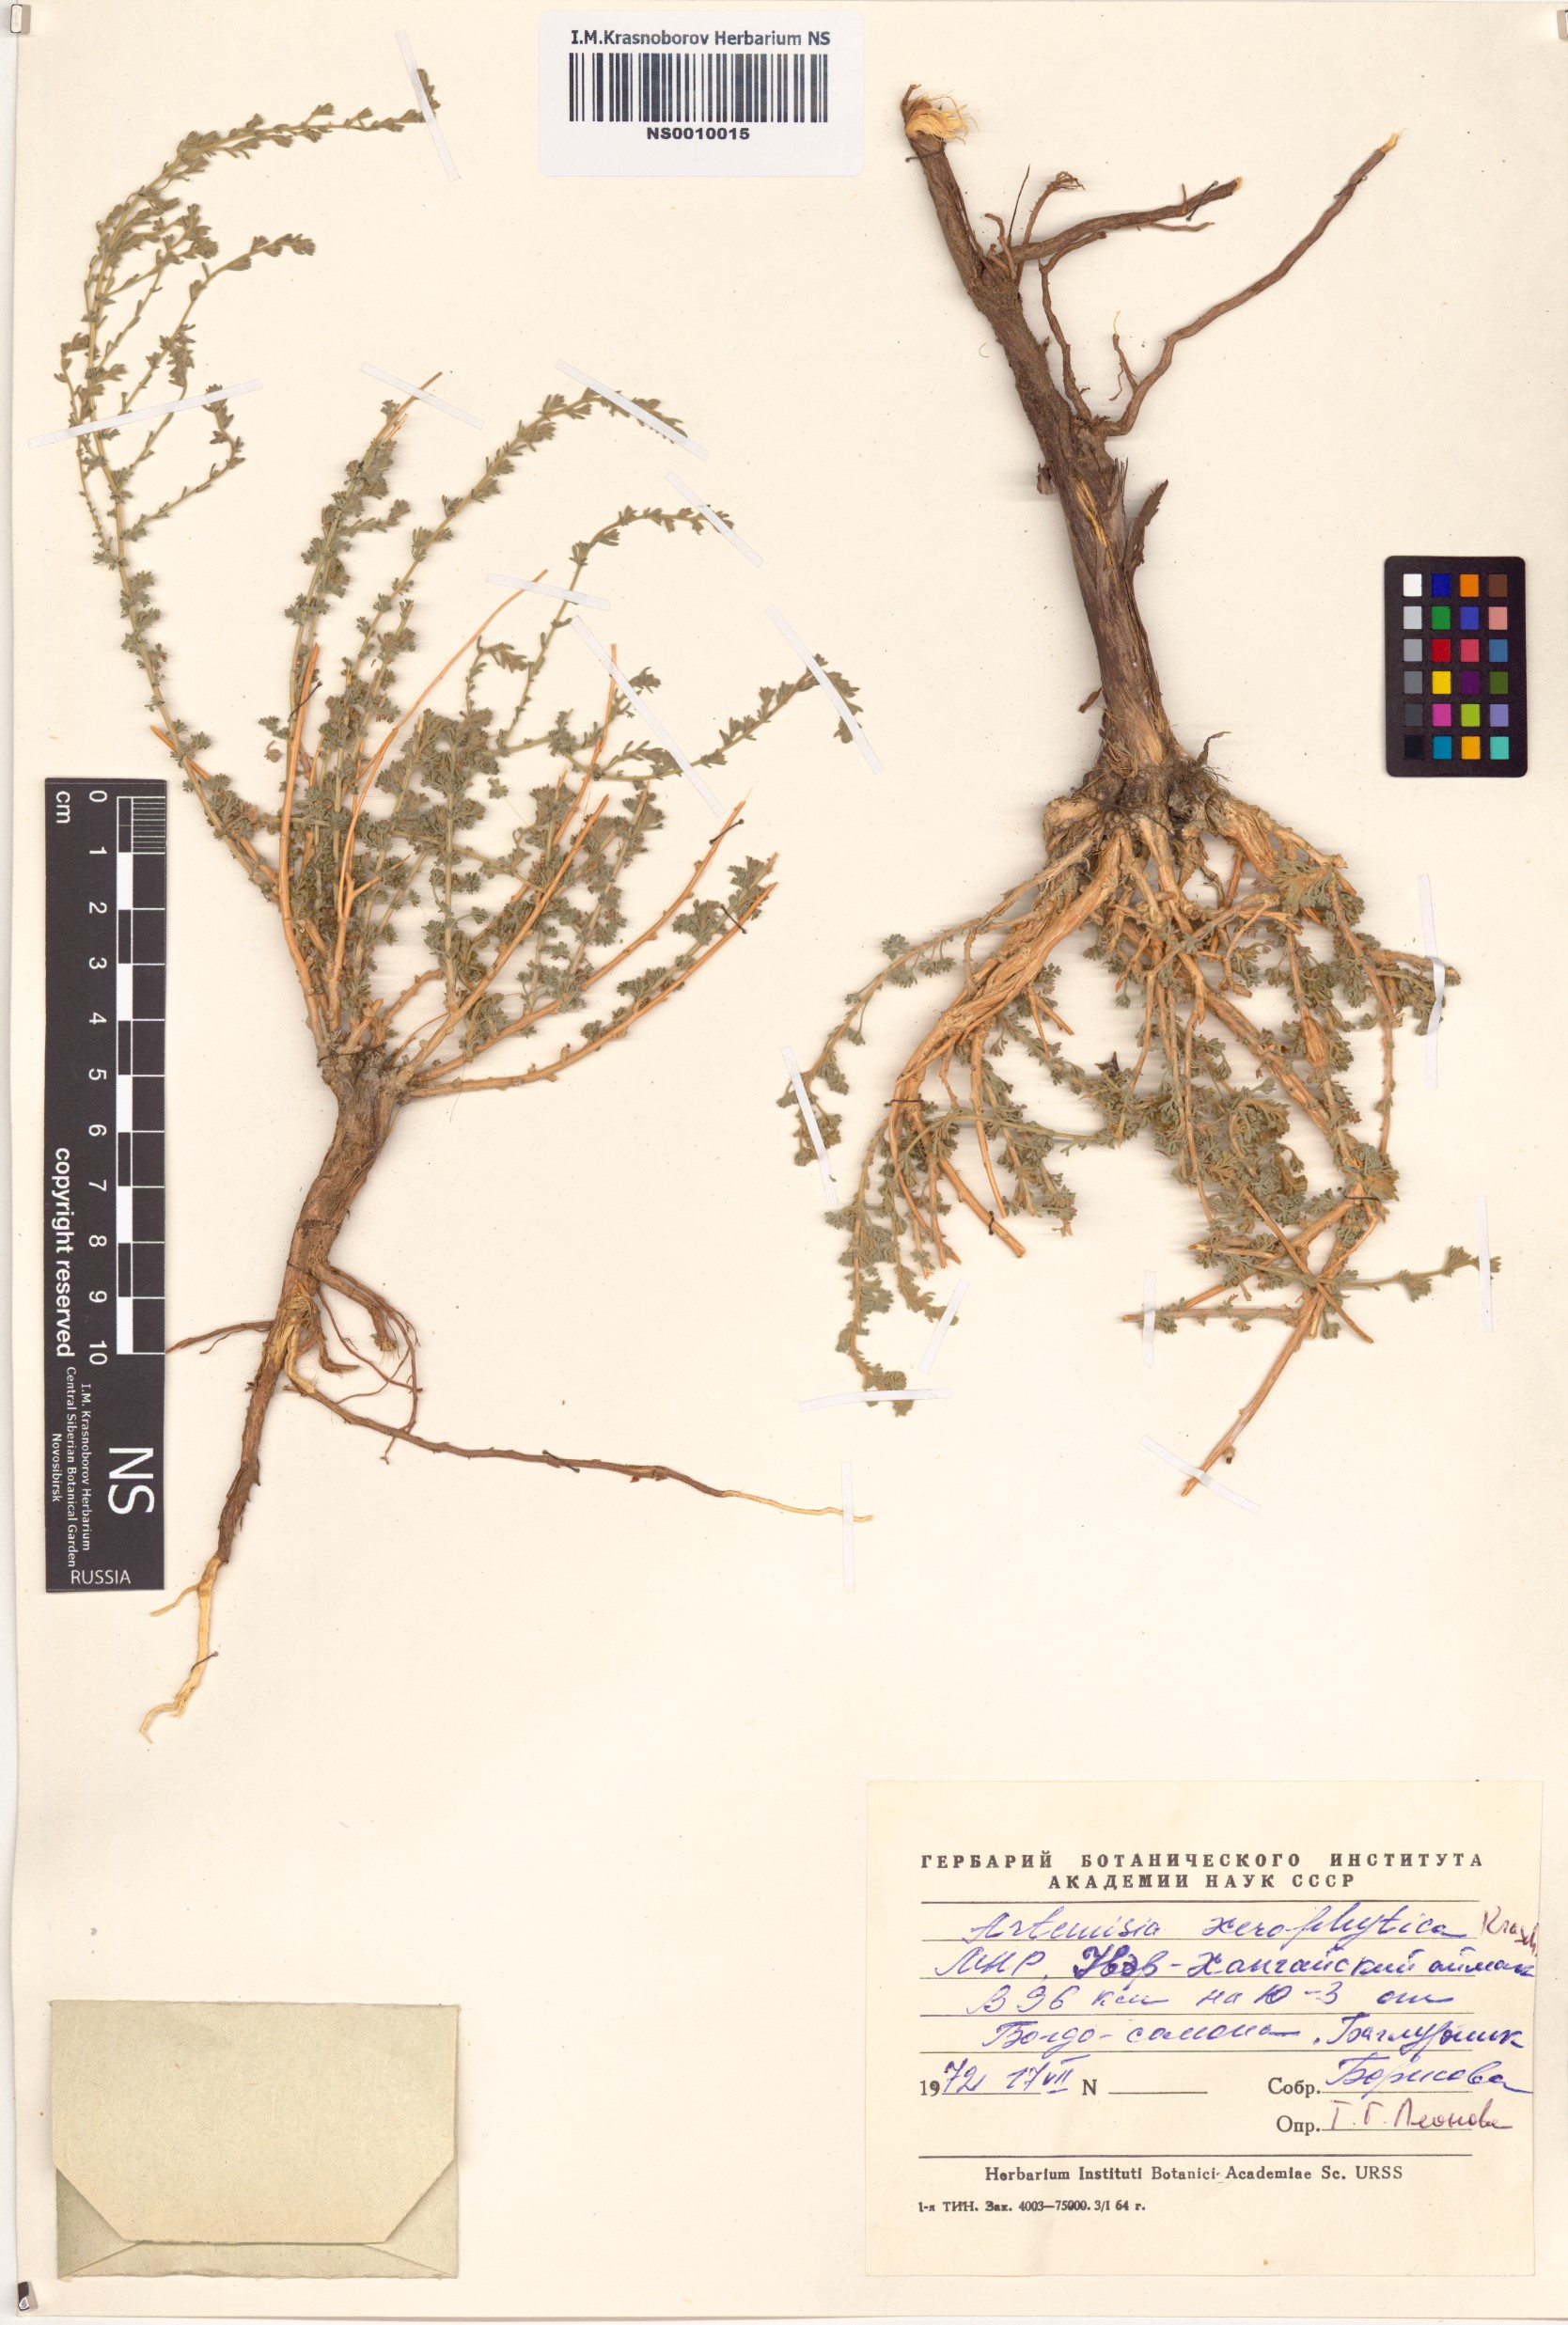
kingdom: Plantae
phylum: Tracheophyta
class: Magnoliopsida
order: Asterales
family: Asteraceae
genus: Artemisia
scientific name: Artemisia xerophytica
